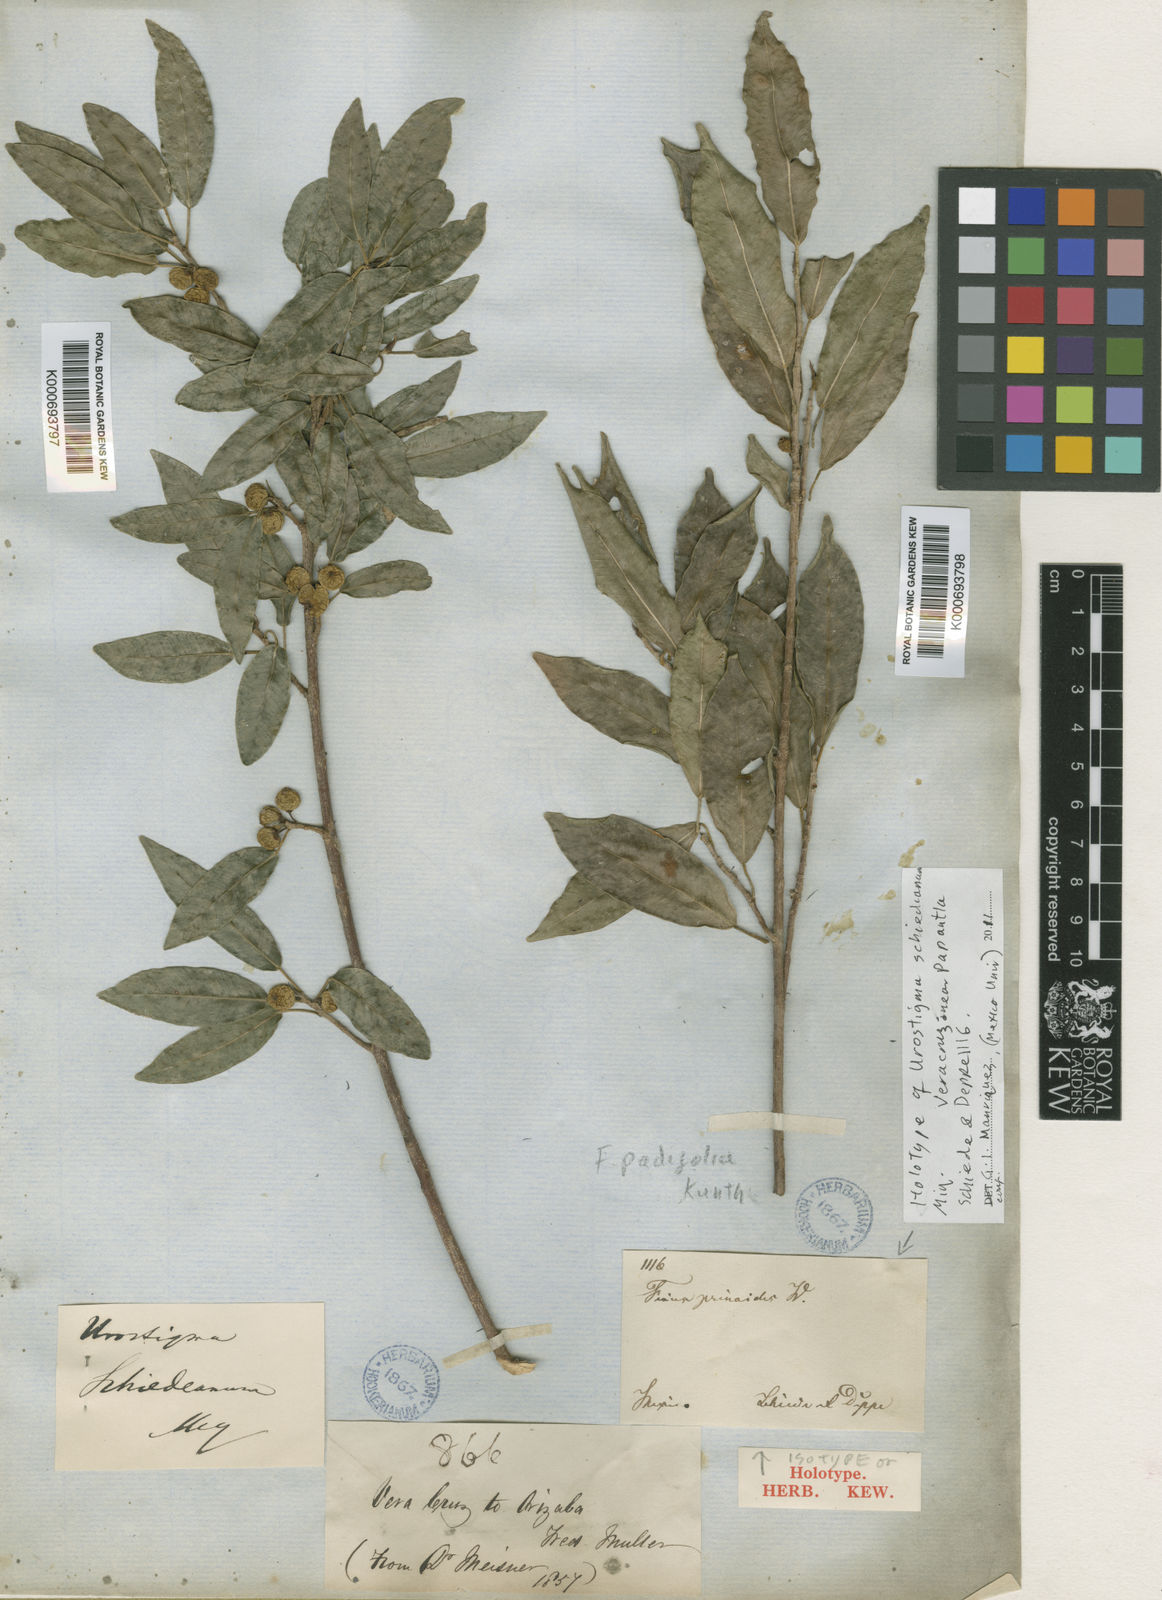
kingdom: Plantae
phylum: Tracheophyta
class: Magnoliopsida
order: Rosales
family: Moraceae
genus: Ficus
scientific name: Ficus padifolia
